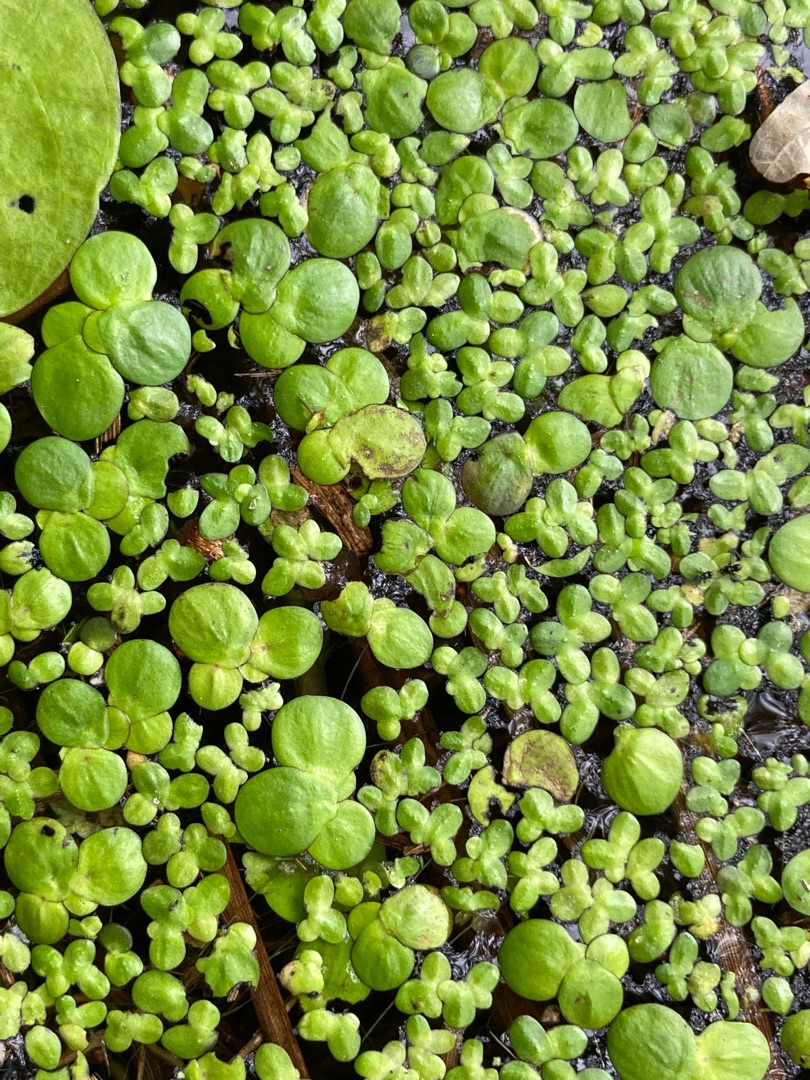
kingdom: Plantae
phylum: Tracheophyta
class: Liliopsida
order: Alismatales
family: Araceae
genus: Lemna
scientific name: Lemna minor
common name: Liden andemad
